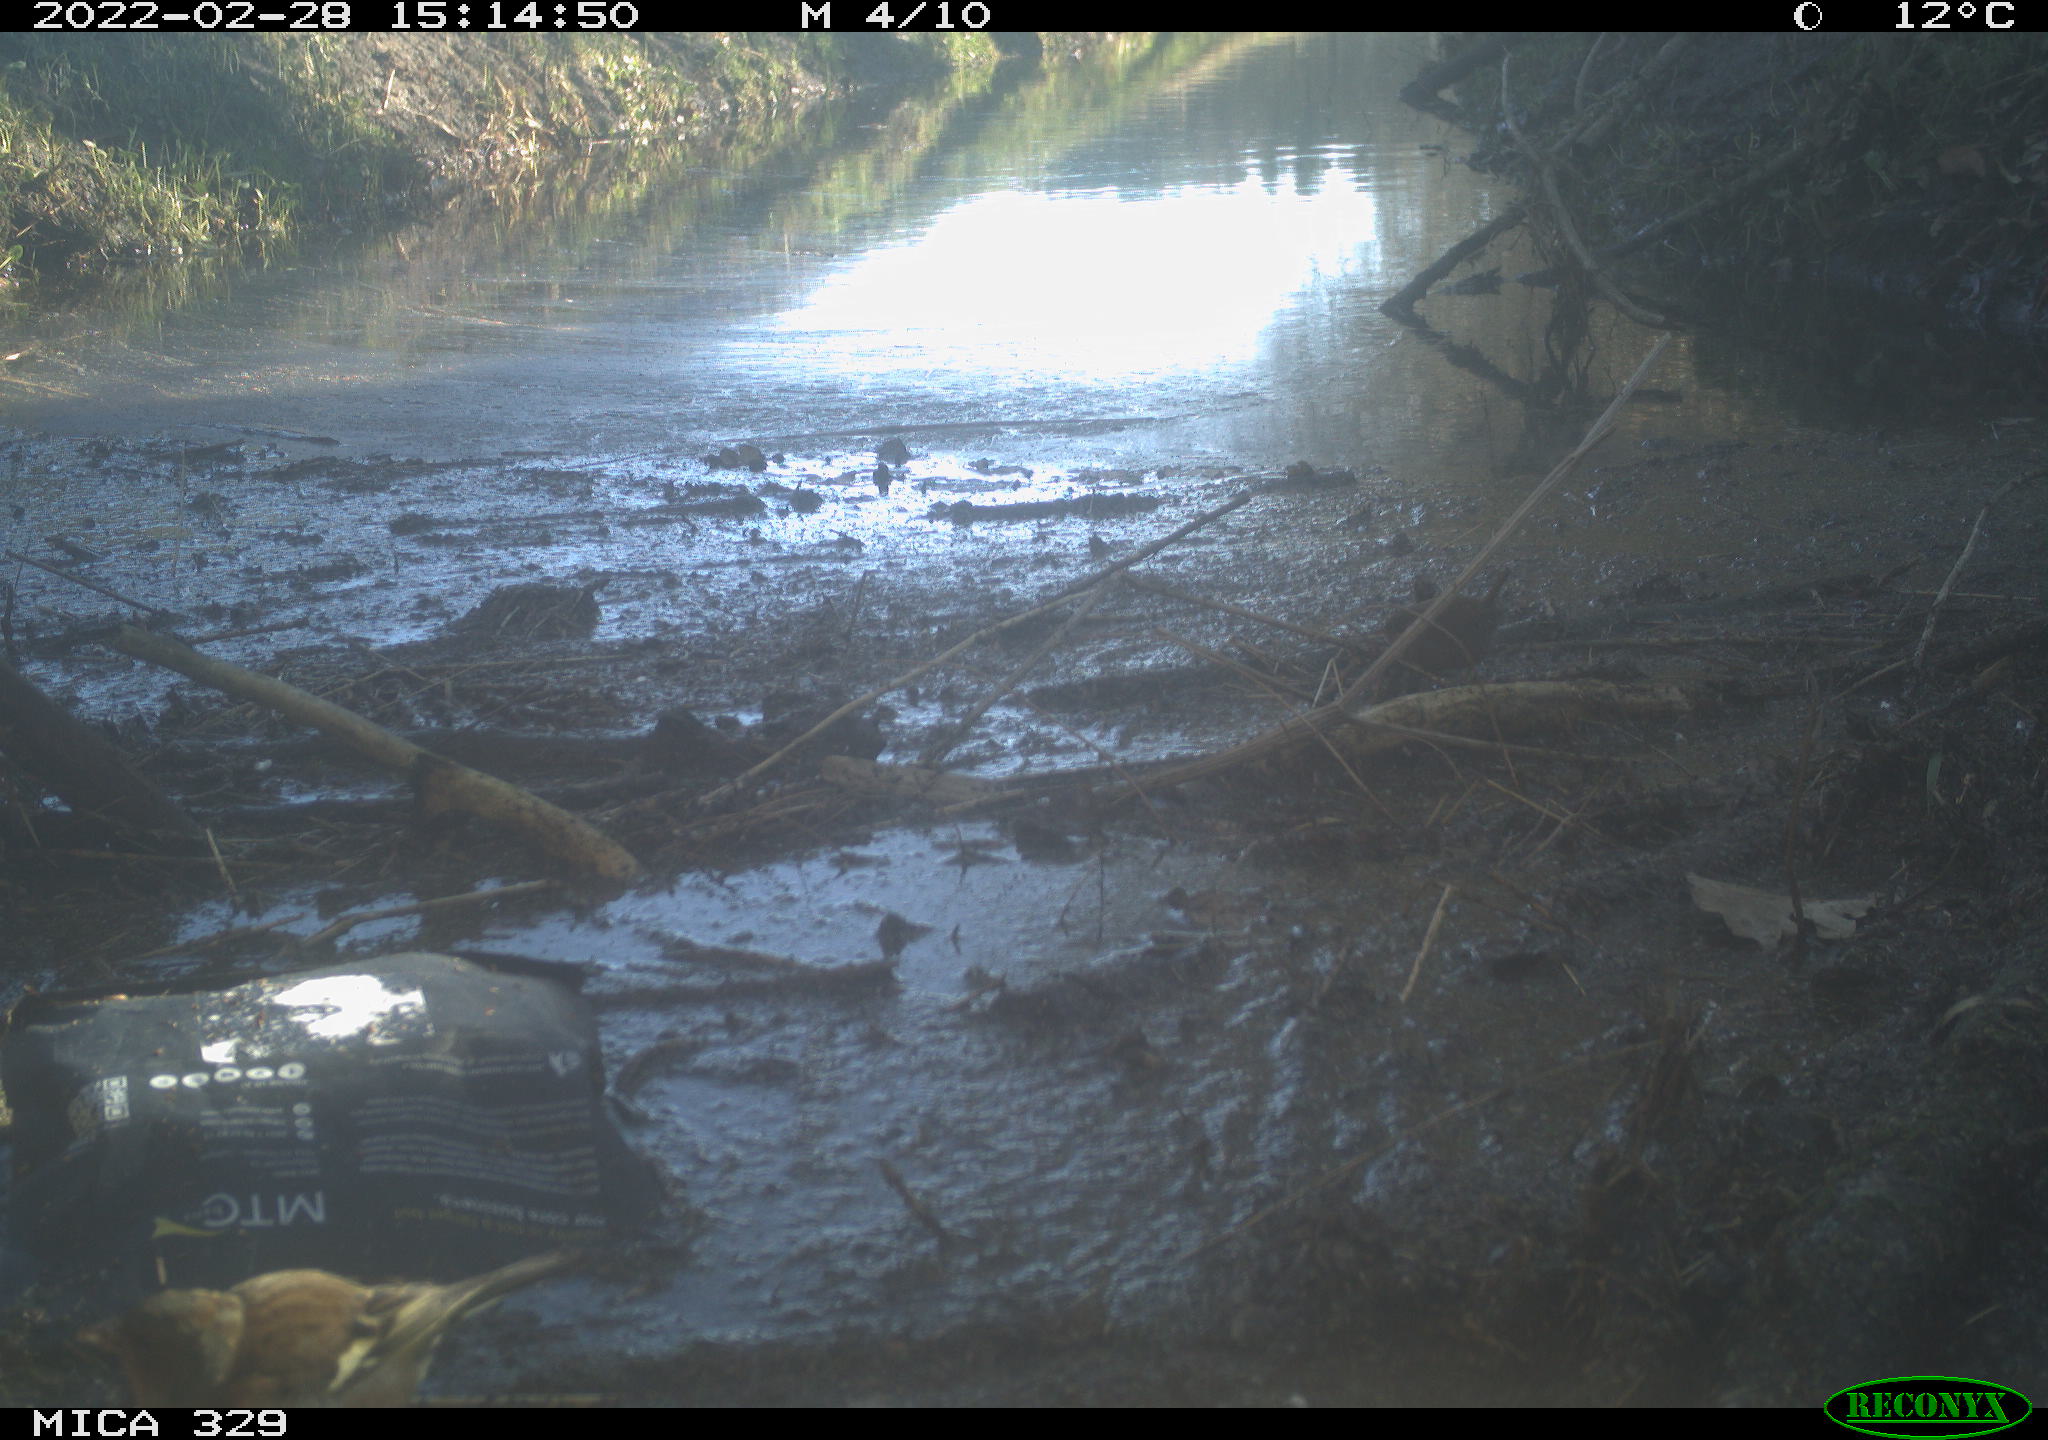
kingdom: Animalia
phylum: Chordata
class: Aves
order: Passeriformes
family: Fringillidae
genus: Fringilla
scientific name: Fringilla coelebs
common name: Common chaffinch
